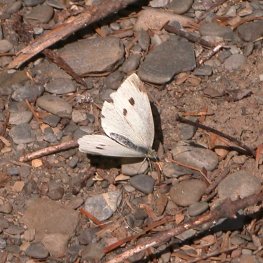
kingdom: Animalia
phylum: Arthropoda
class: Insecta
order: Lepidoptera
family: Pieridae
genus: Pieris
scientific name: Pieris rapae
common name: Cabbage White
